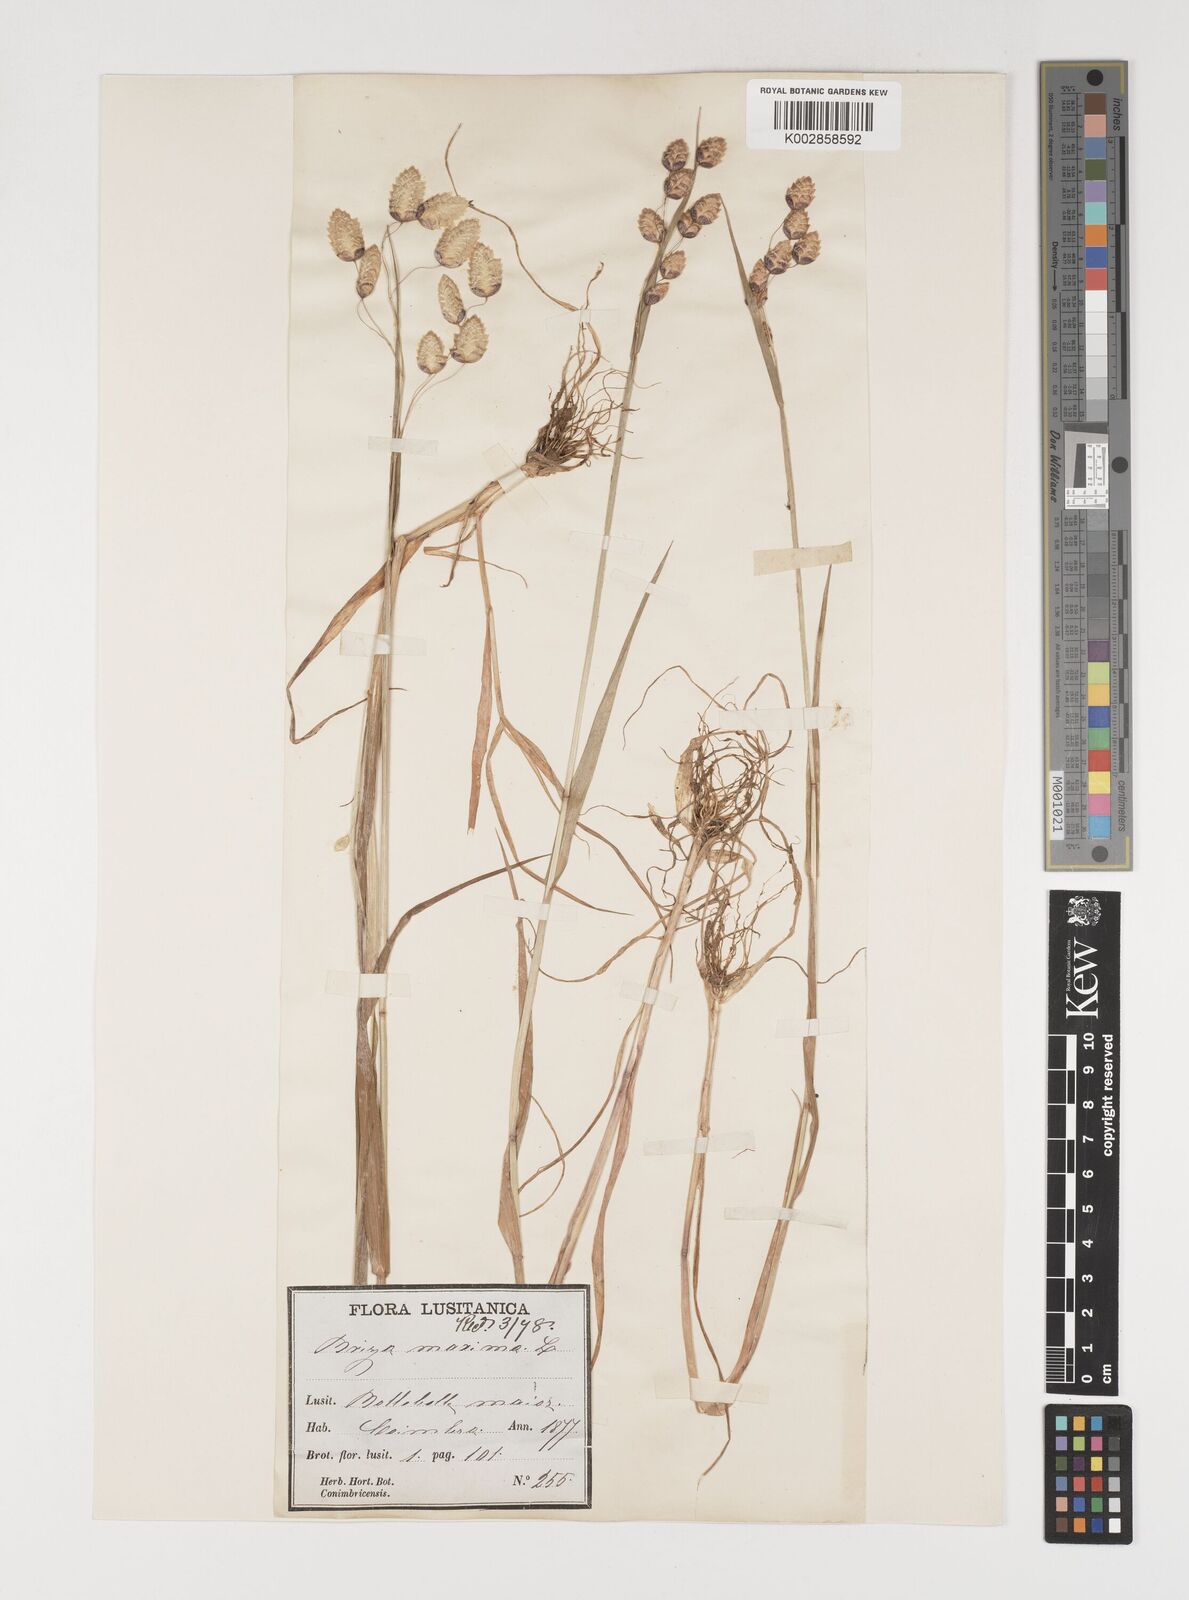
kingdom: Plantae
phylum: Tracheophyta
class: Liliopsida
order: Poales
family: Poaceae
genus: Briza
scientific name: Briza maxima
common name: Big quakinggrass
